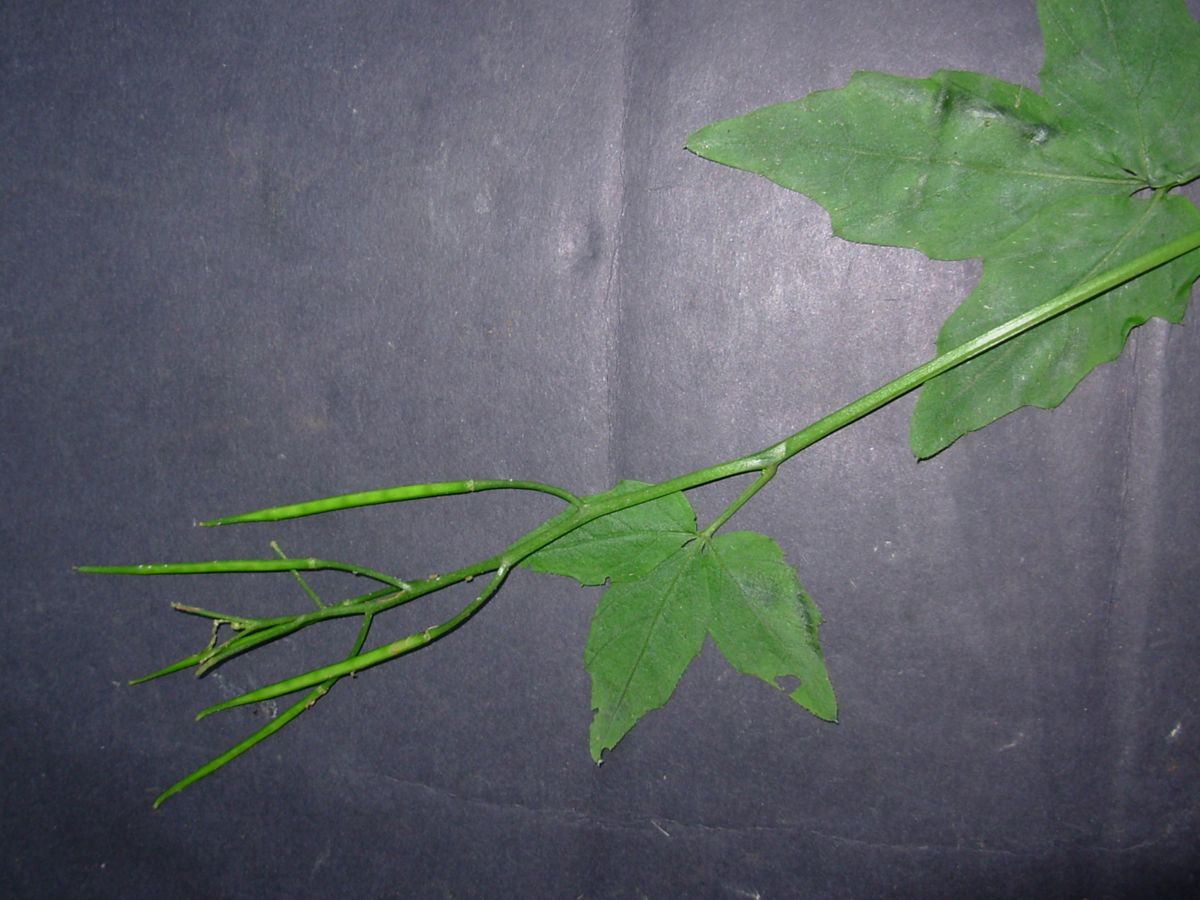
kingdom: Plantae
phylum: Tracheophyta
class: Magnoliopsida
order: Brassicales
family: Brassicaceae
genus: Cardamine
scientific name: Cardamine africana
